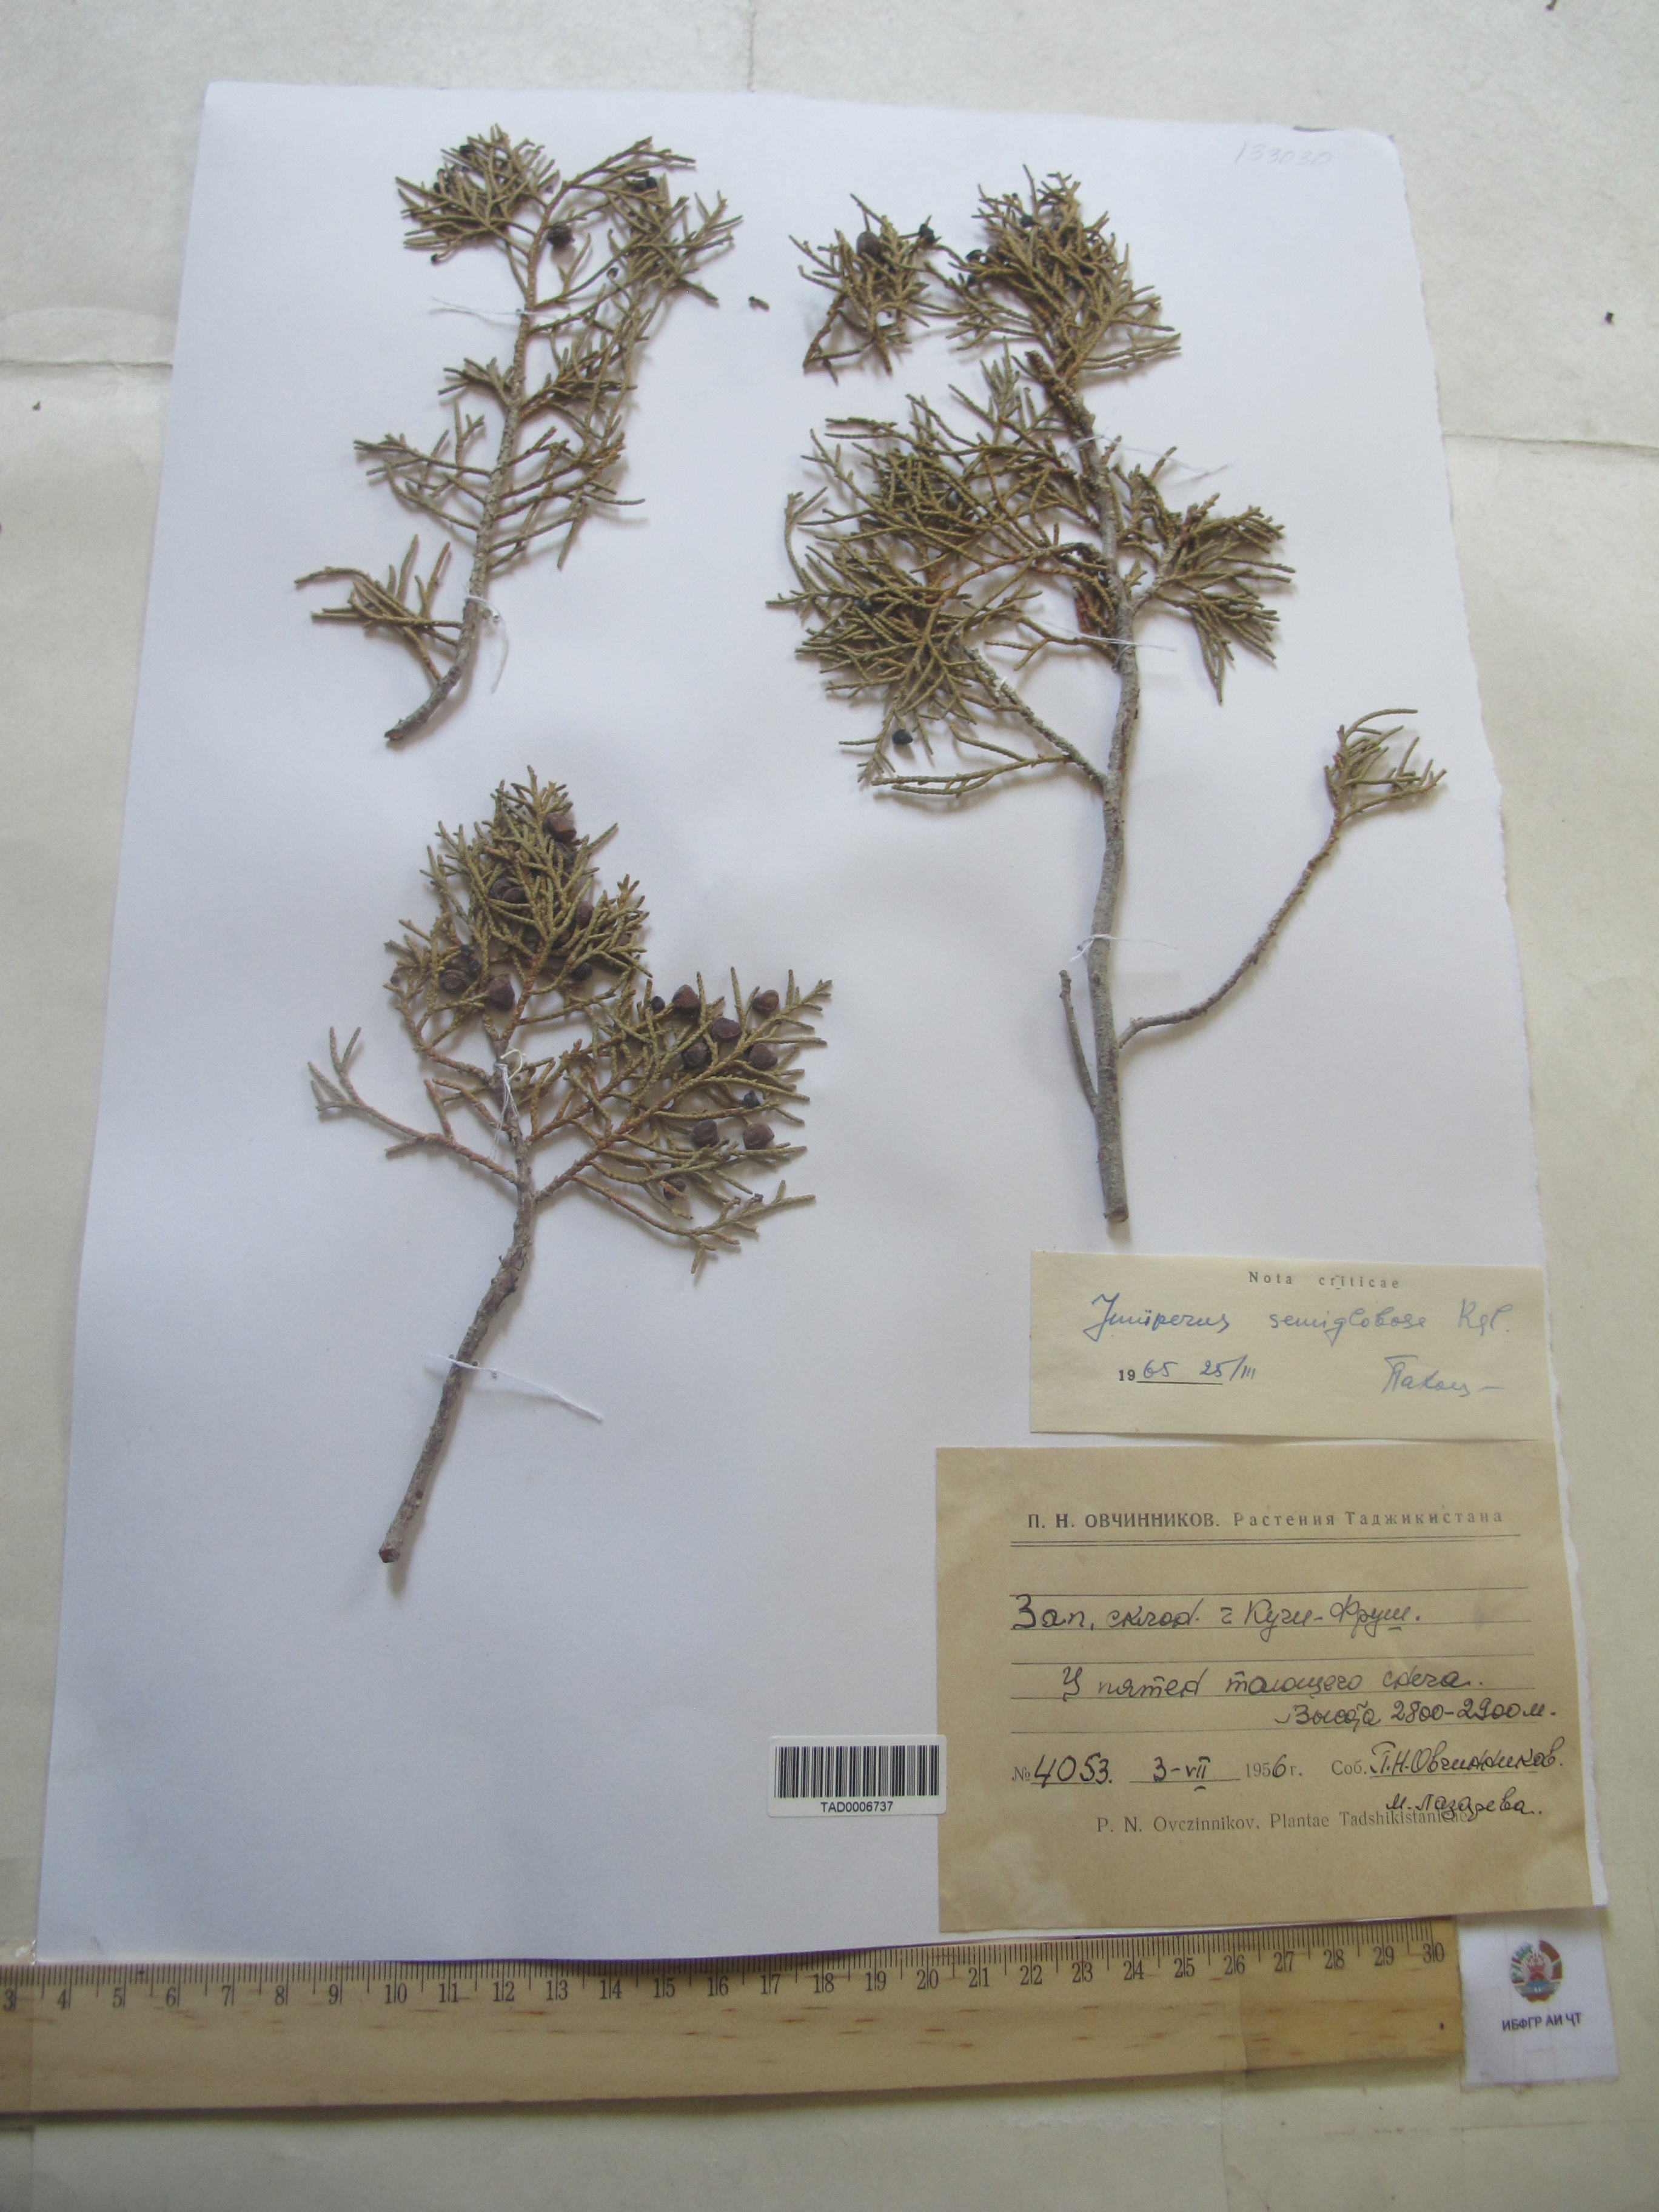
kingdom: Plantae
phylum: Tracheophyta
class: Pinopsida
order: Pinales
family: Cupressaceae
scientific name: Cupressaceae
